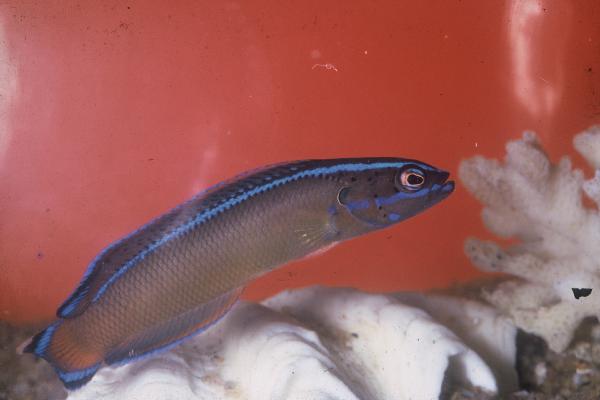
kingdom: Animalia
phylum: Chordata
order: Perciformes
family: Pseudochromidae
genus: Pseudochromis
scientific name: Pseudochromis dutoiti
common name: Dutoiti
